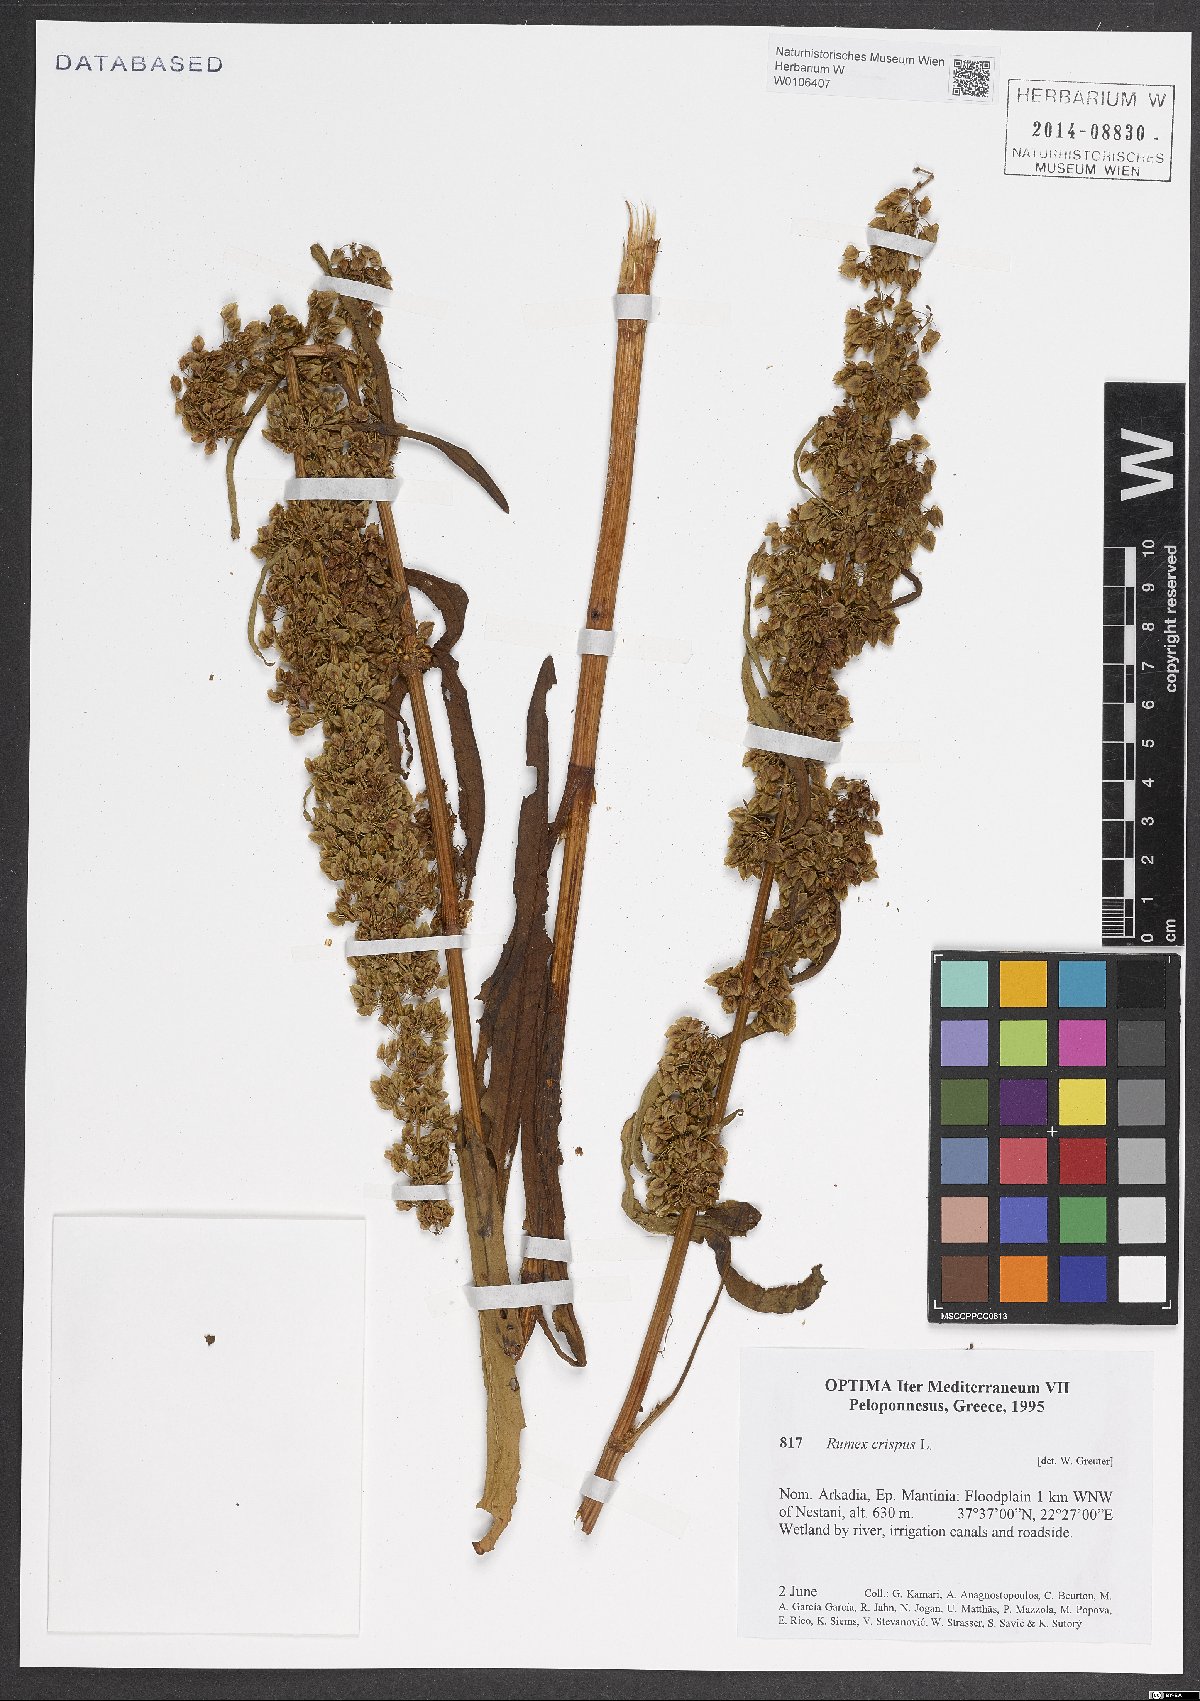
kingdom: Plantae
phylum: Tracheophyta
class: Magnoliopsida
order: Caryophyllales
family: Polygonaceae
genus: Rumex
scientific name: Rumex crispus
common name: Curled dock
